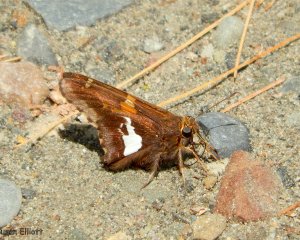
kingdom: Animalia
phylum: Arthropoda
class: Insecta
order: Lepidoptera
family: Hesperiidae
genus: Epargyreus
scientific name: Epargyreus clarus
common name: Silver-spotted Skipper
